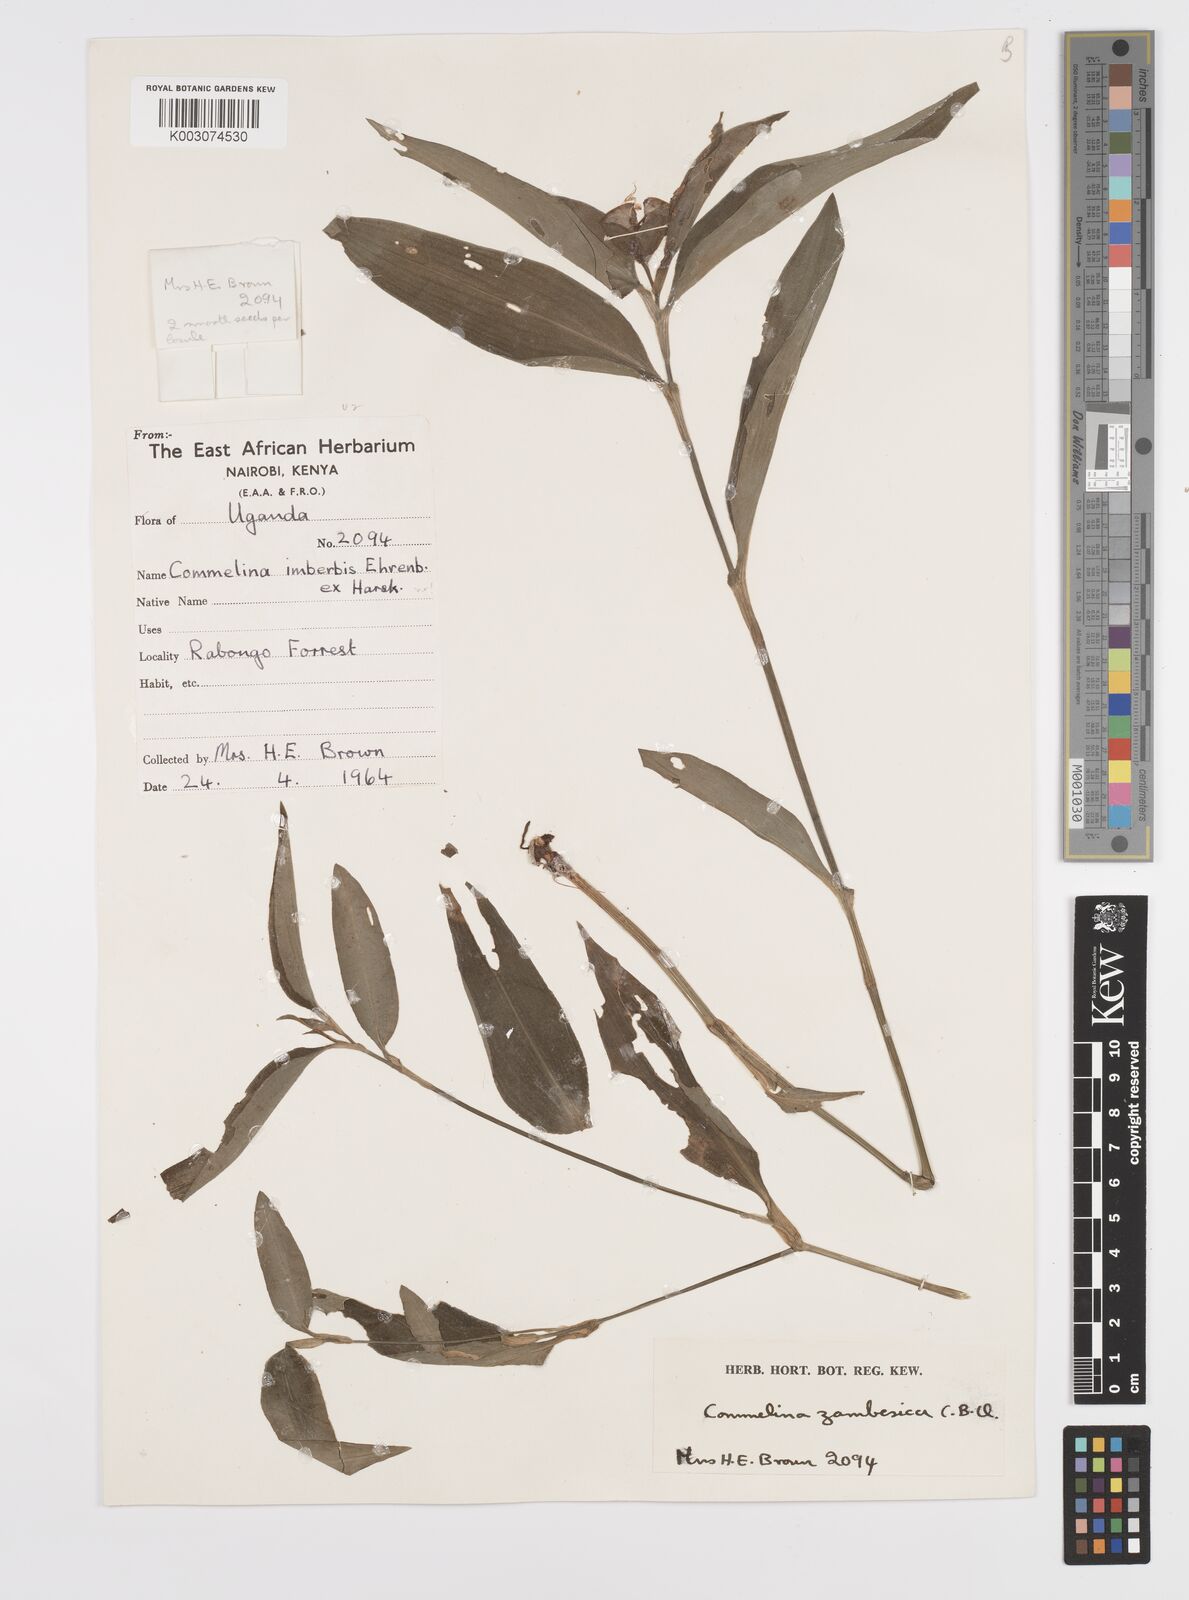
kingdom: Plantae
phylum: Tracheophyta
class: Liliopsida
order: Commelinales
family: Commelinaceae
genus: Commelina
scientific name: Commelina zambesica
